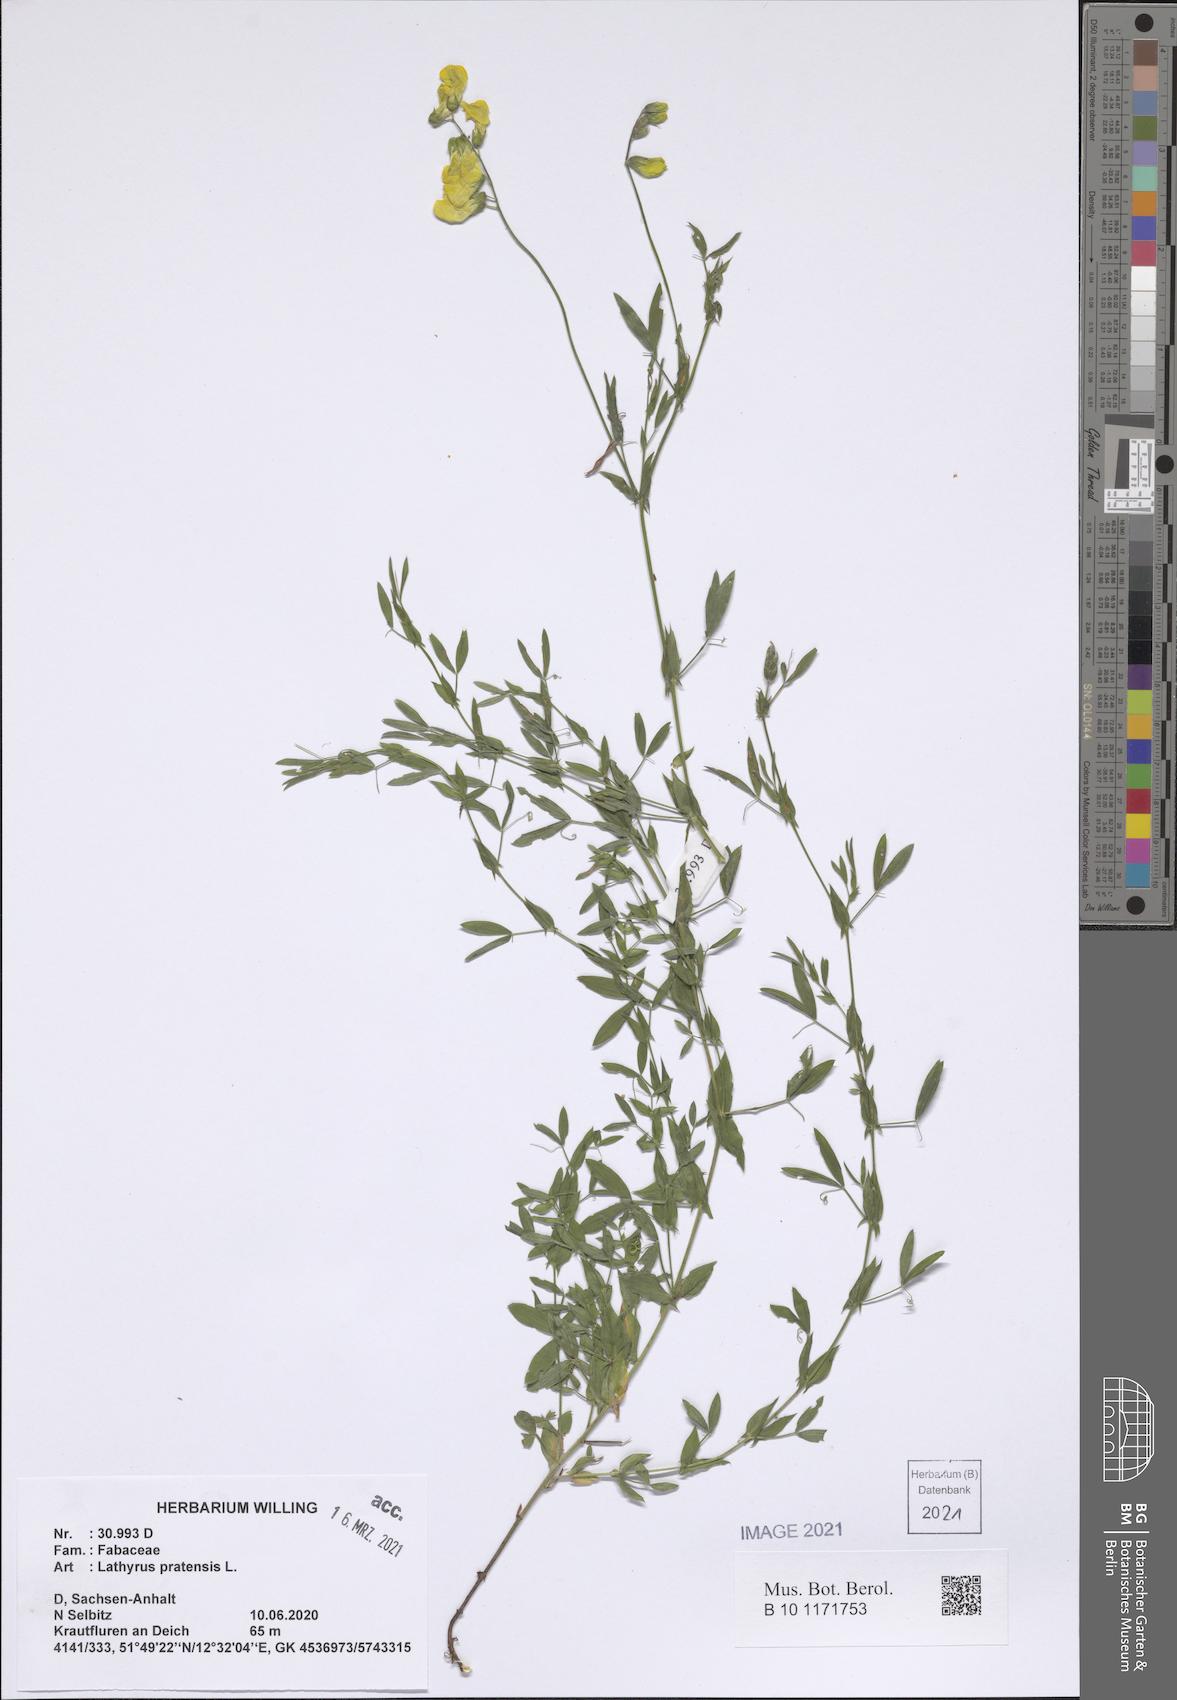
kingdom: Plantae
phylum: Tracheophyta
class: Magnoliopsida
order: Fabales
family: Fabaceae
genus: Lathyrus
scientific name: Lathyrus pratensis
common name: Meadow vetchling
